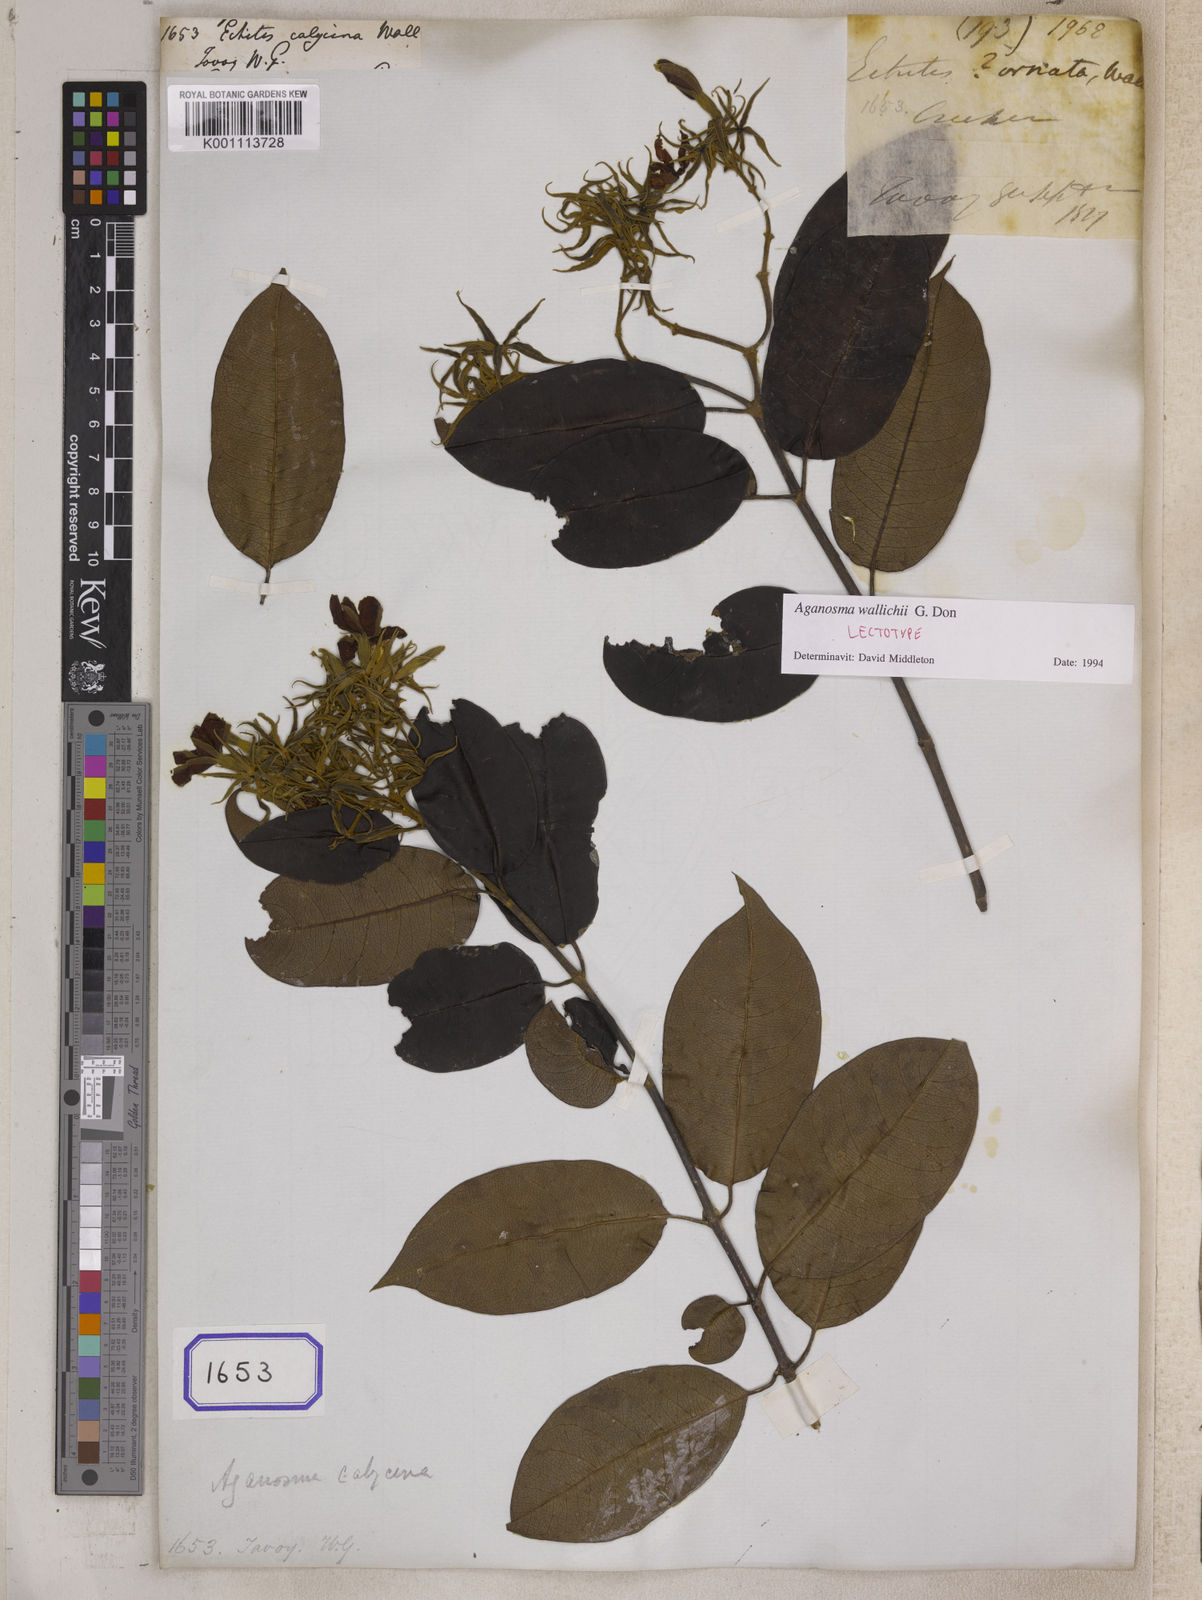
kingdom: Plantae
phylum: Tracheophyta
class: Magnoliopsida
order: Gentianales
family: Apocynaceae
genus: Aganosma
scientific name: Aganosma wallichii
